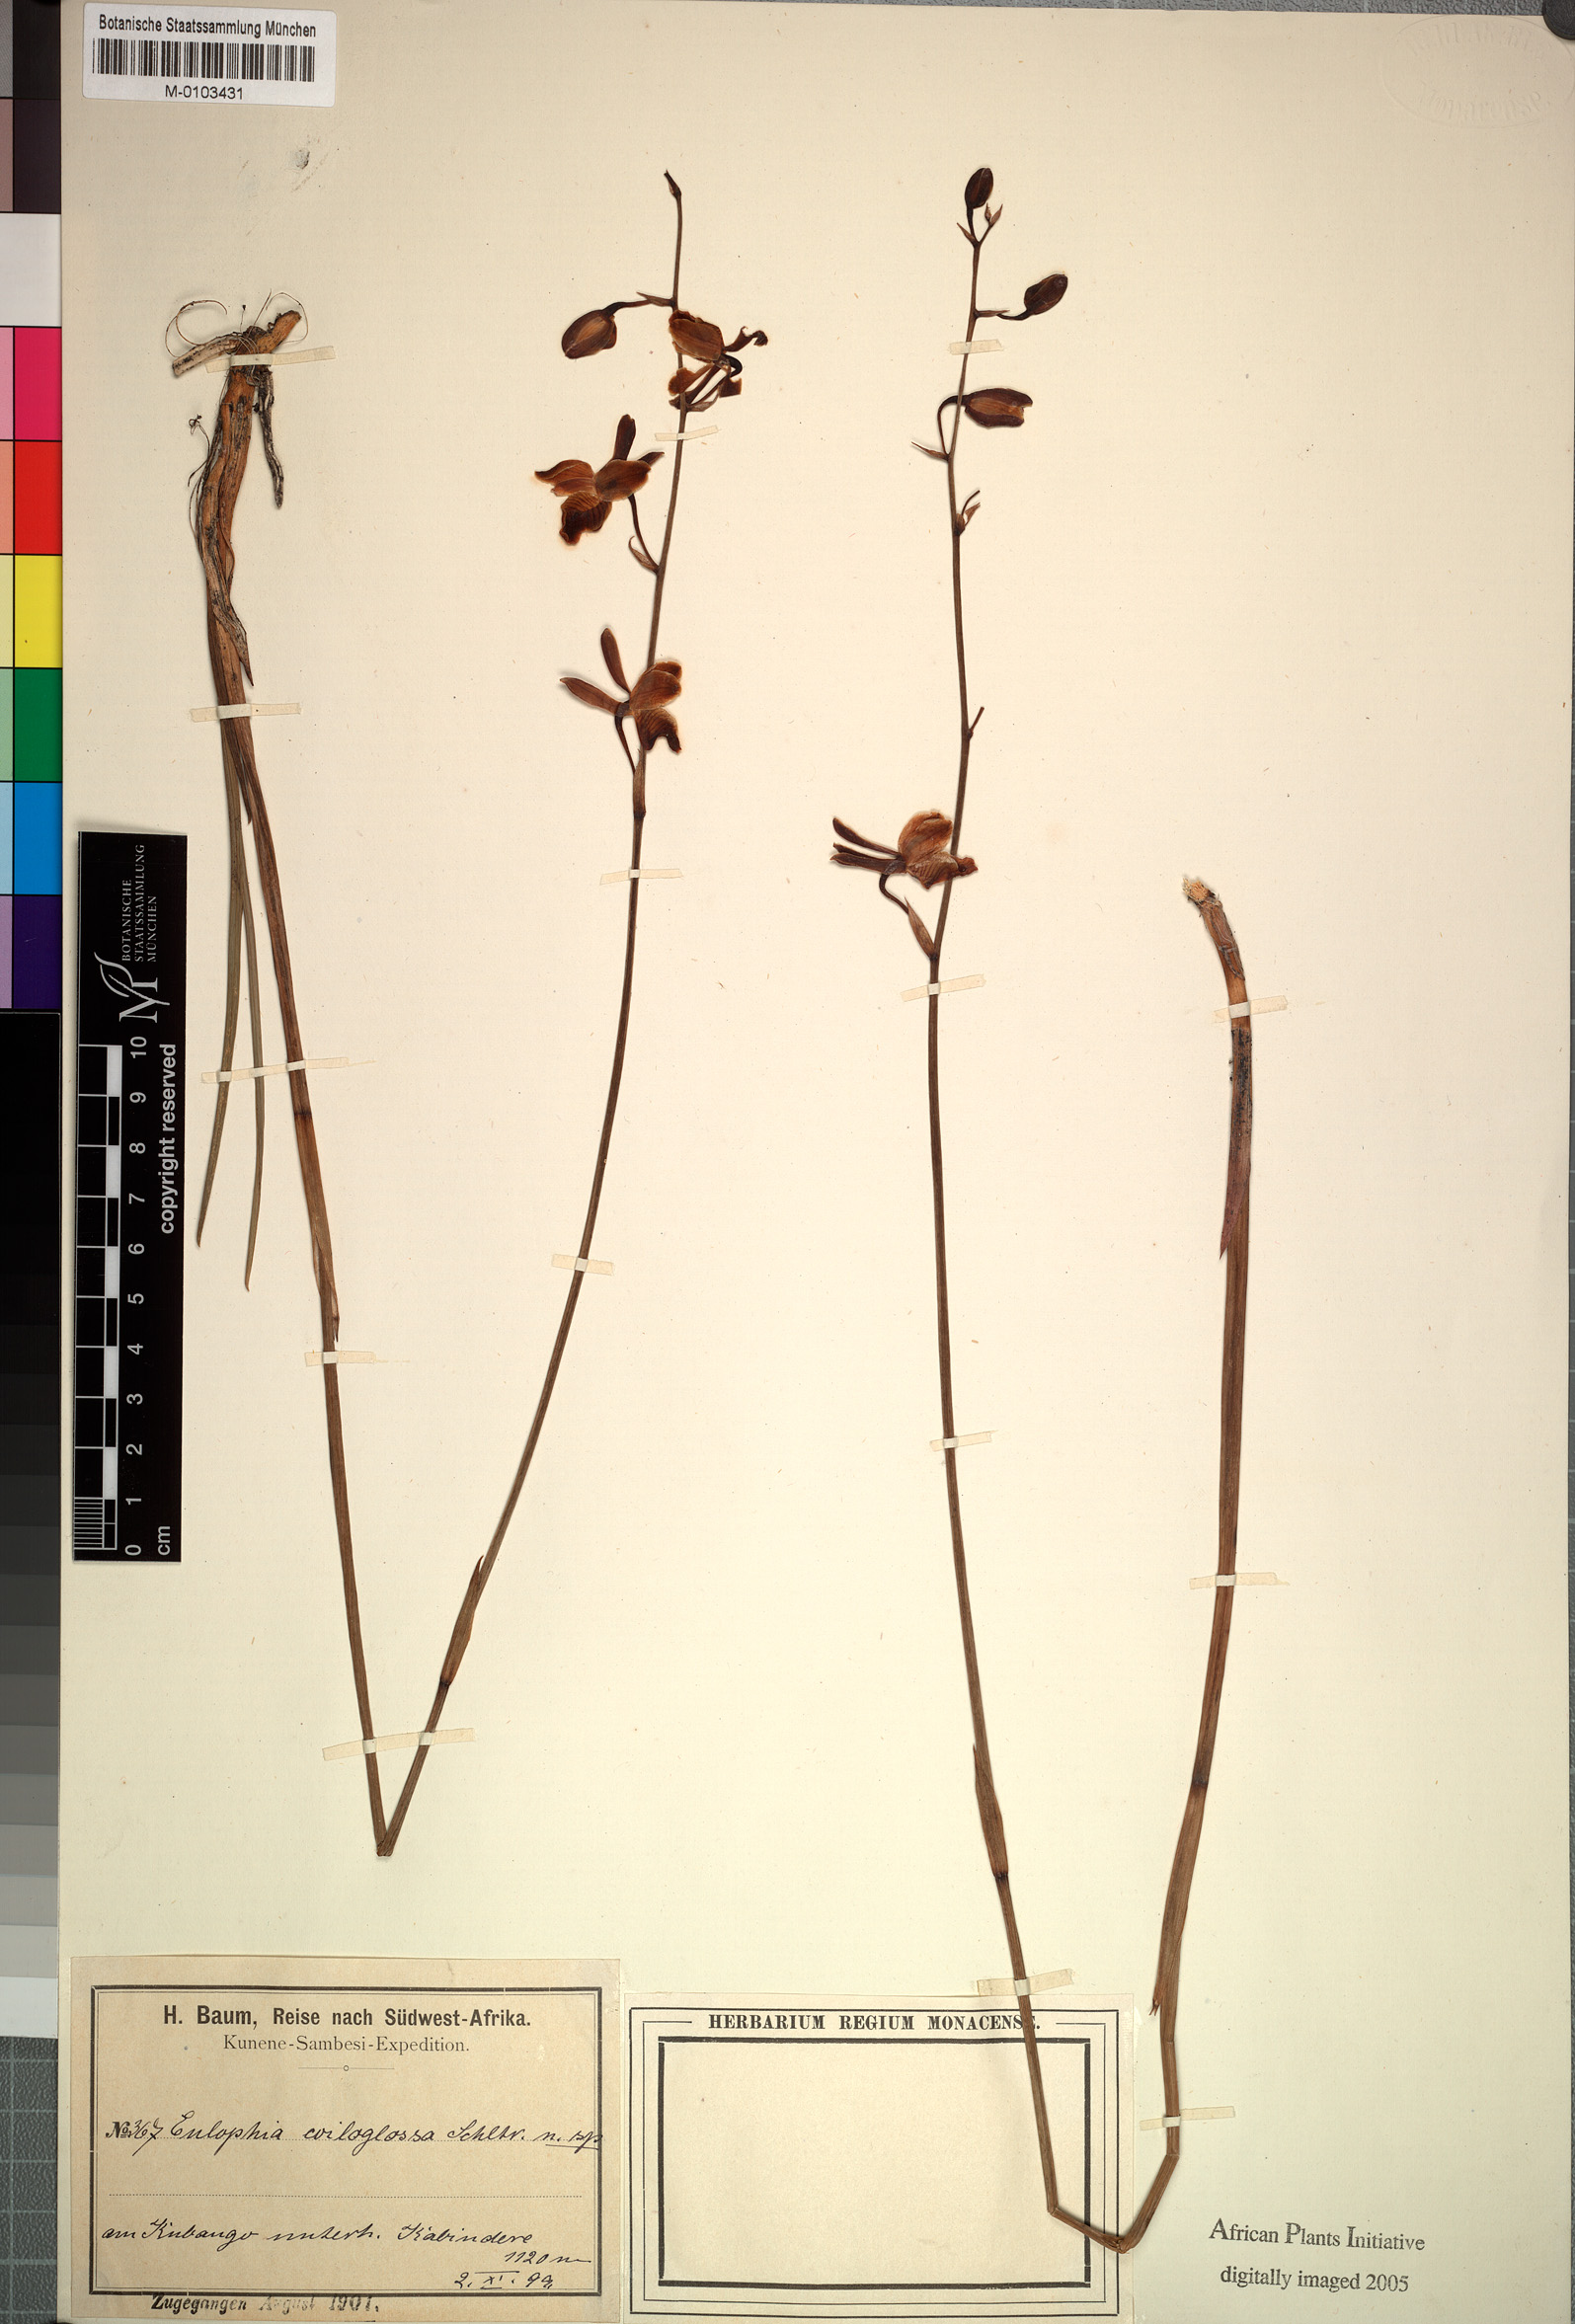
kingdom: Plantae
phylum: Tracheophyta
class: Liliopsida
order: Asparagales
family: Orchidaceae
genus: Eulophia
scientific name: Eulophia coeloglossa
